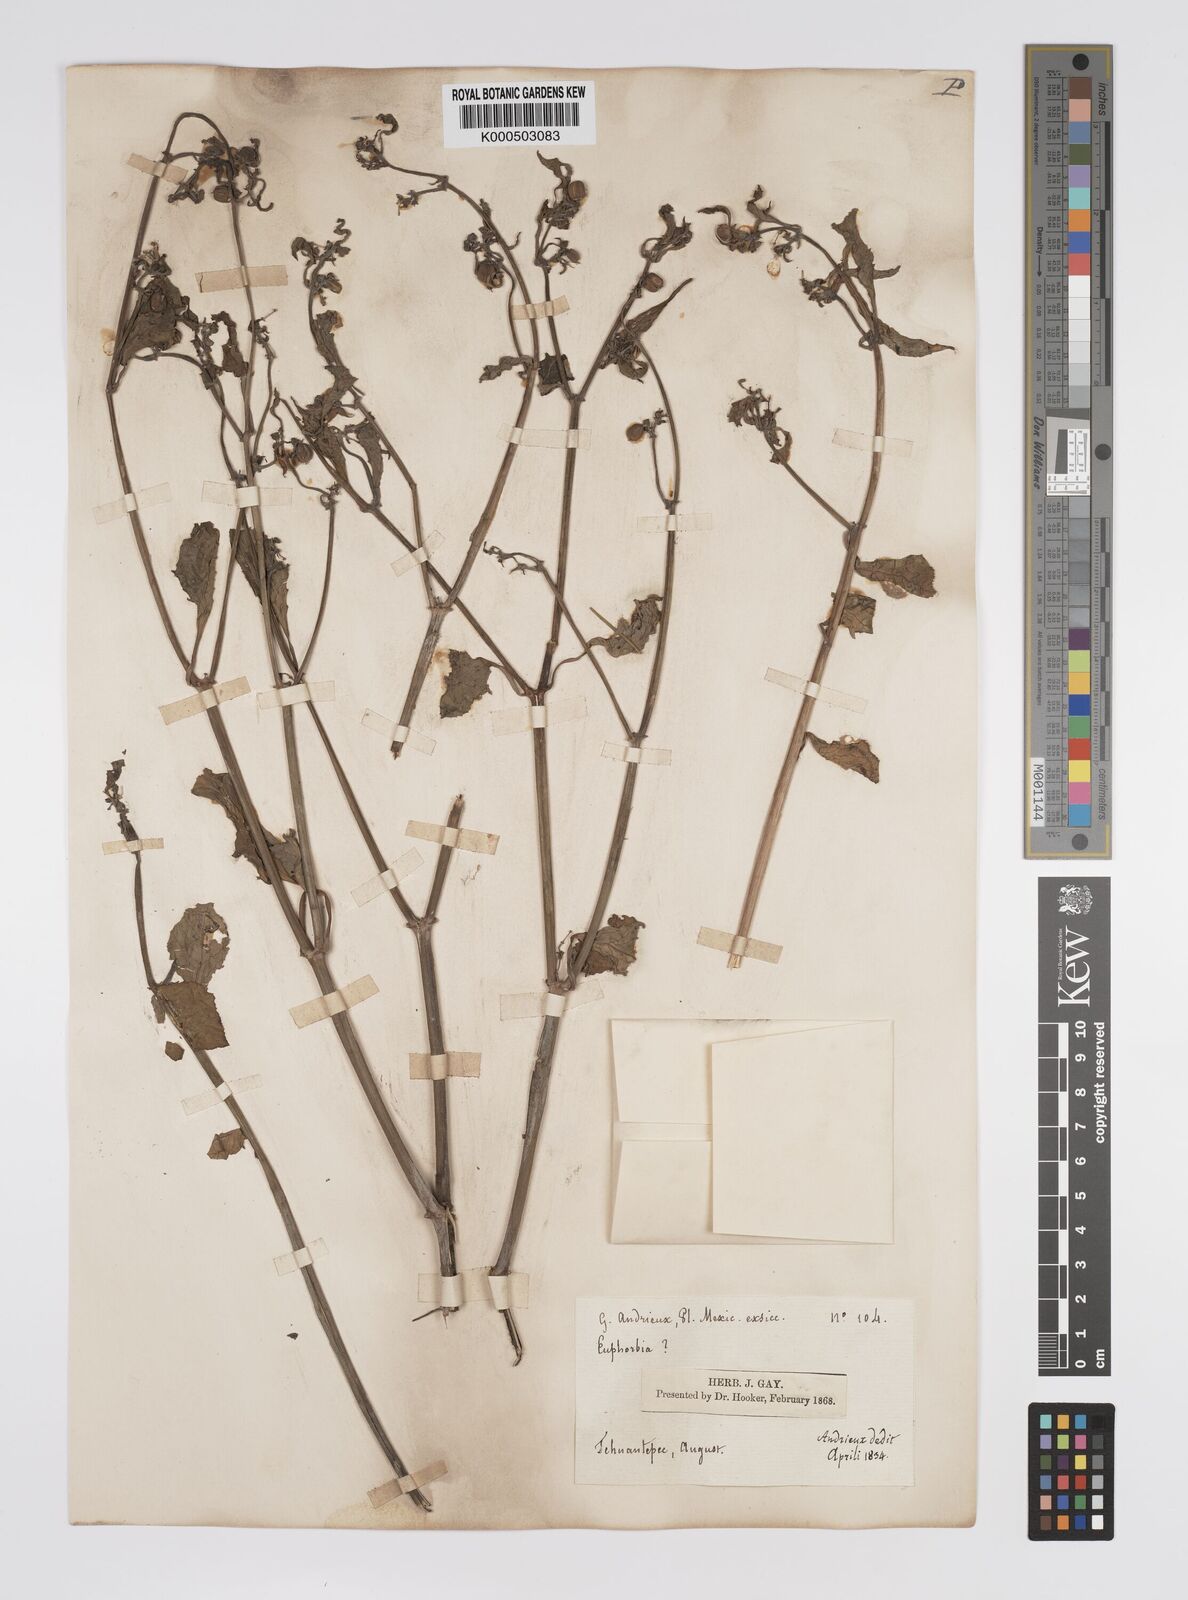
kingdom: Plantae
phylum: Tracheophyta
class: Magnoliopsida
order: Malpighiales
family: Euphorbiaceae
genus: Euphorbia
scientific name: Euphorbia
